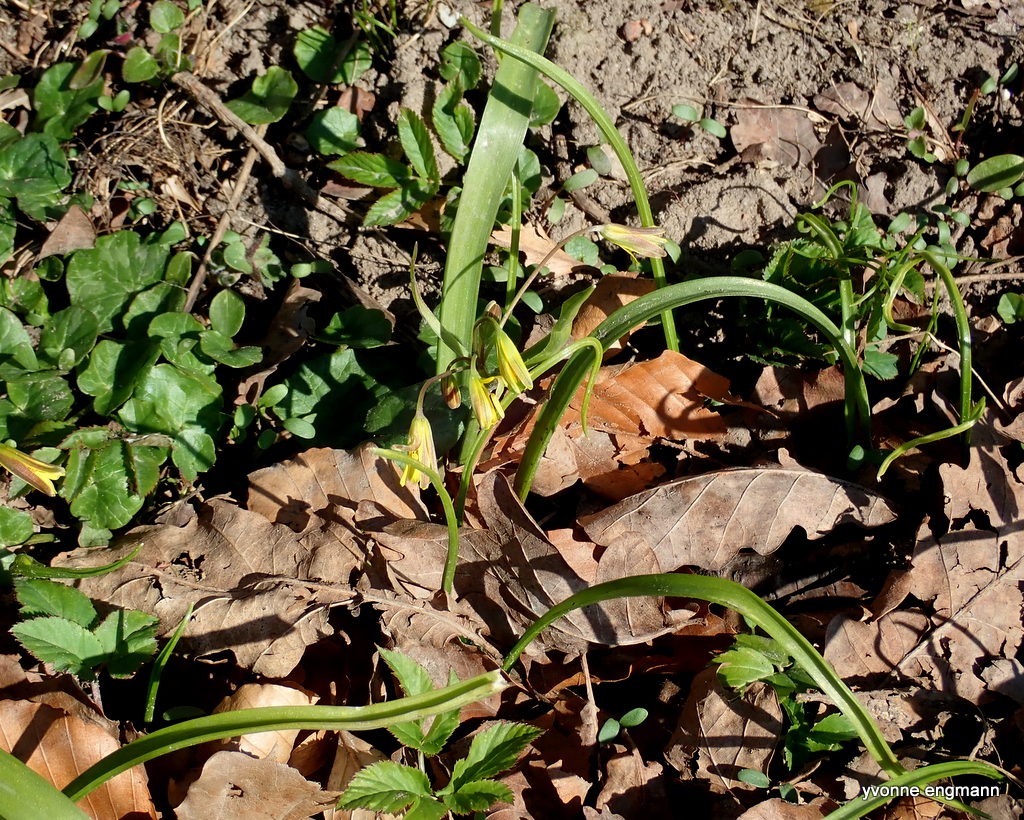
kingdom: Plantae
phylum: Tracheophyta
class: Liliopsida
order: Liliales
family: Liliaceae
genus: Gagea
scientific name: Gagea lutea
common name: Almindelig guldstjerne
